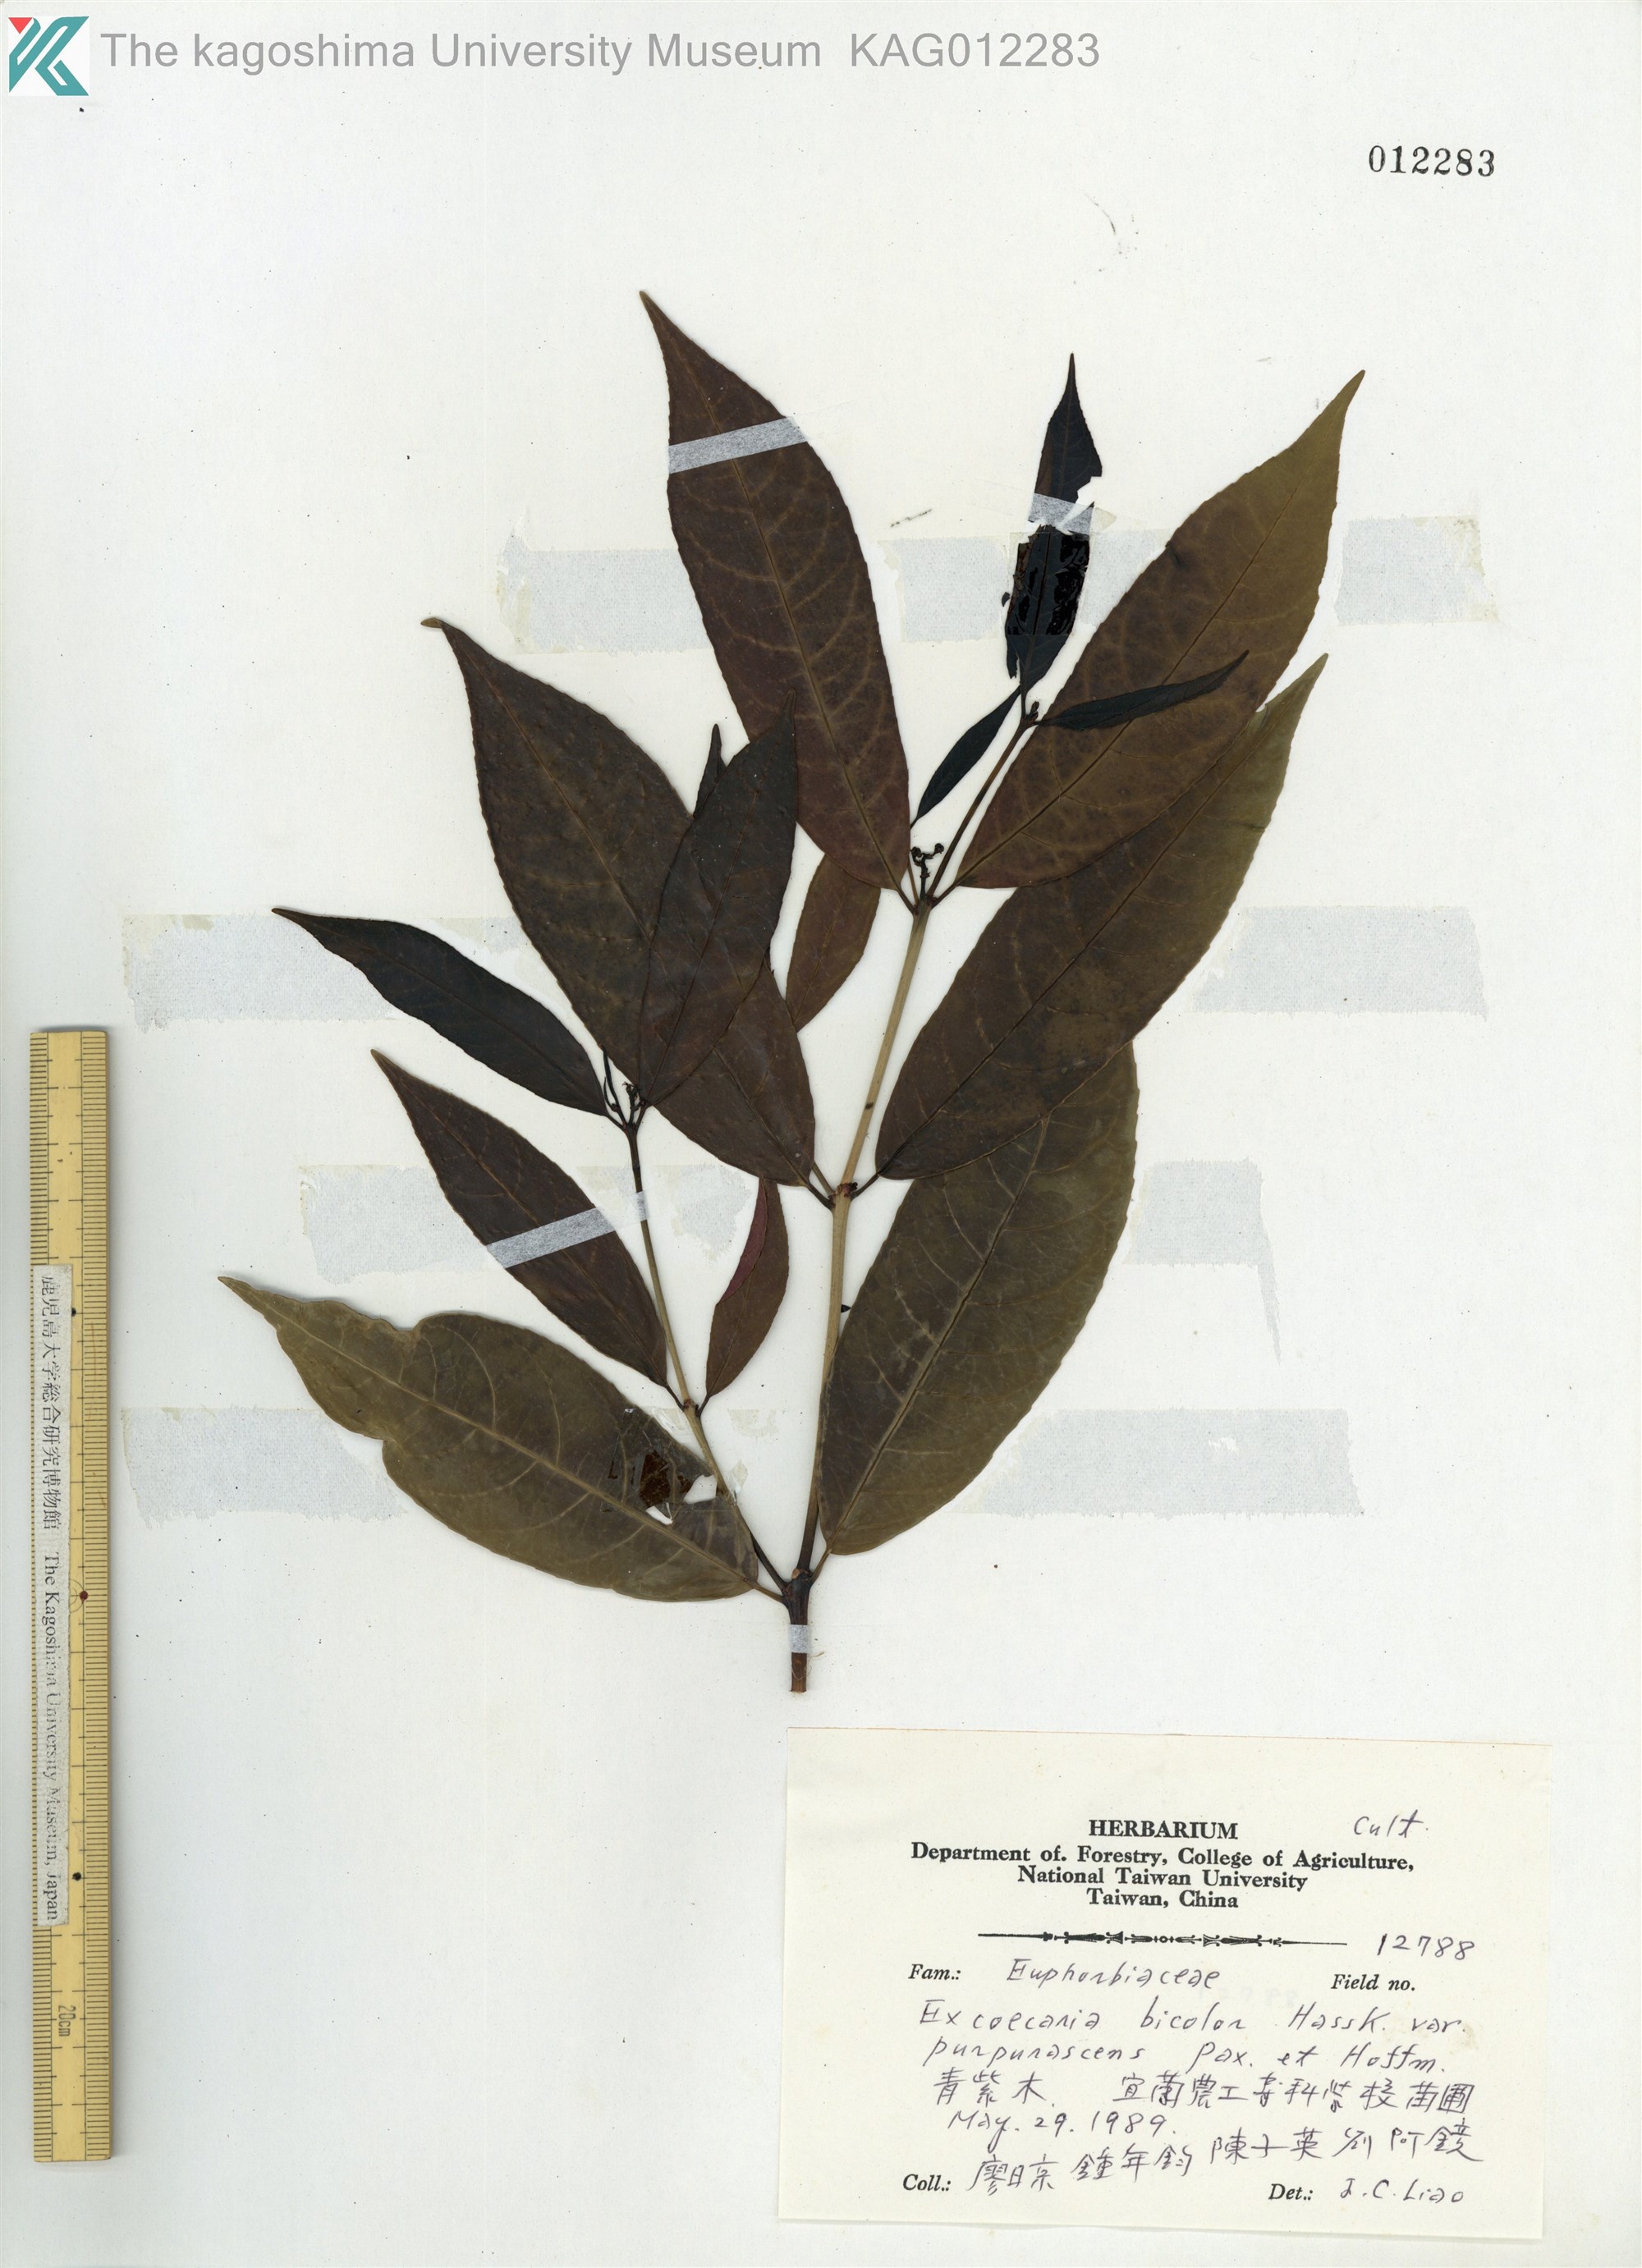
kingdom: Plantae
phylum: Tracheophyta
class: Magnoliopsida
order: Malpighiales
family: Euphorbiaceae
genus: Excoecaria
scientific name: Excoecaria cochinchinensis
